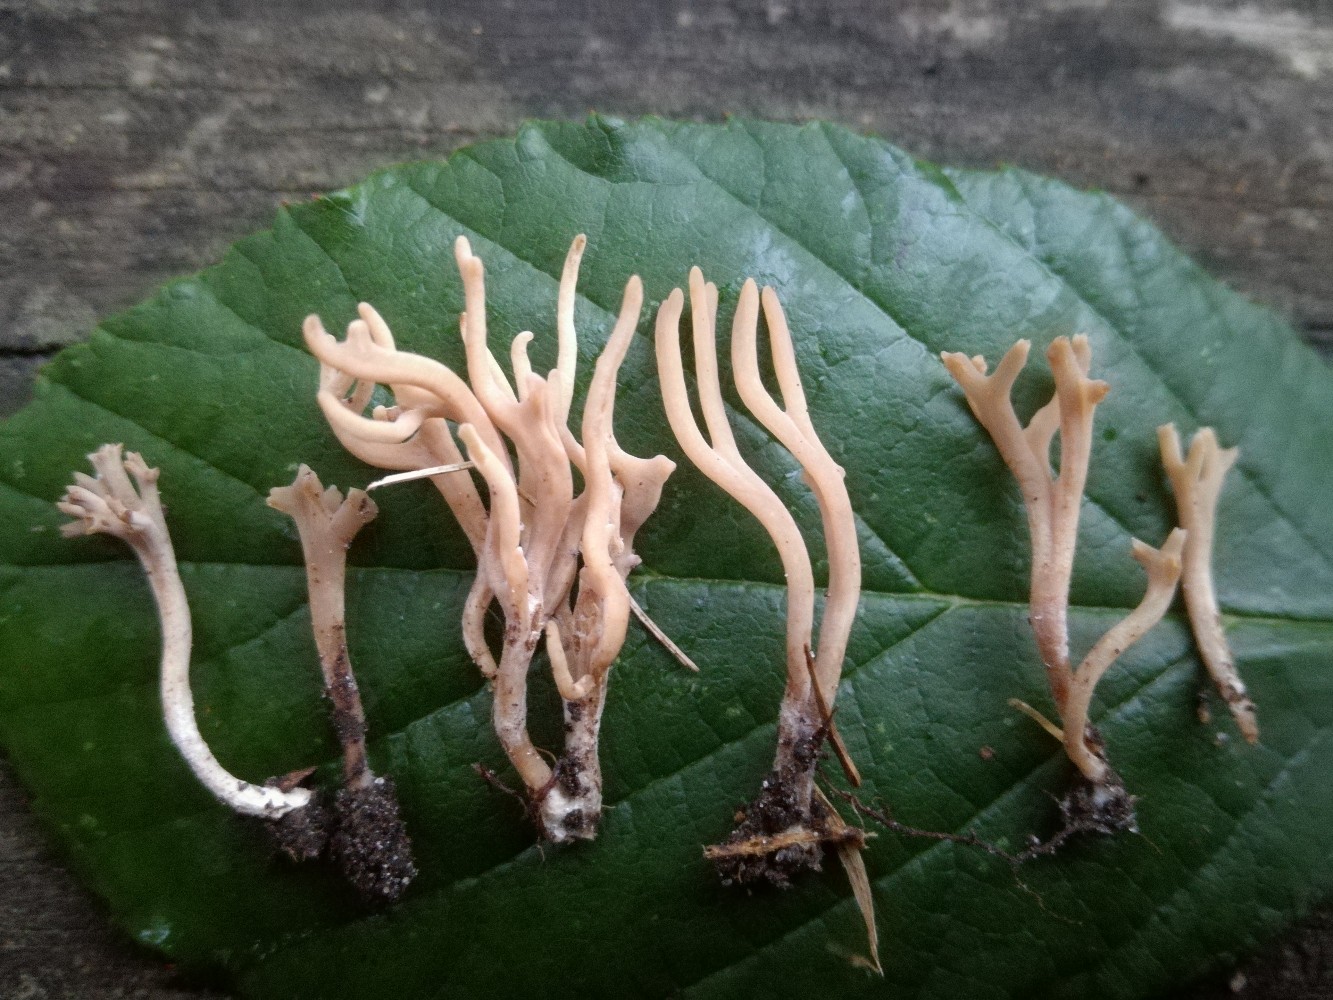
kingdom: Fungi
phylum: Basidiomycota
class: Agaricomycetes
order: Agaricales
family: Clavariaceae
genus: Ramariopsis
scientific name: Ramariopsis subtilis
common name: Slender coral
